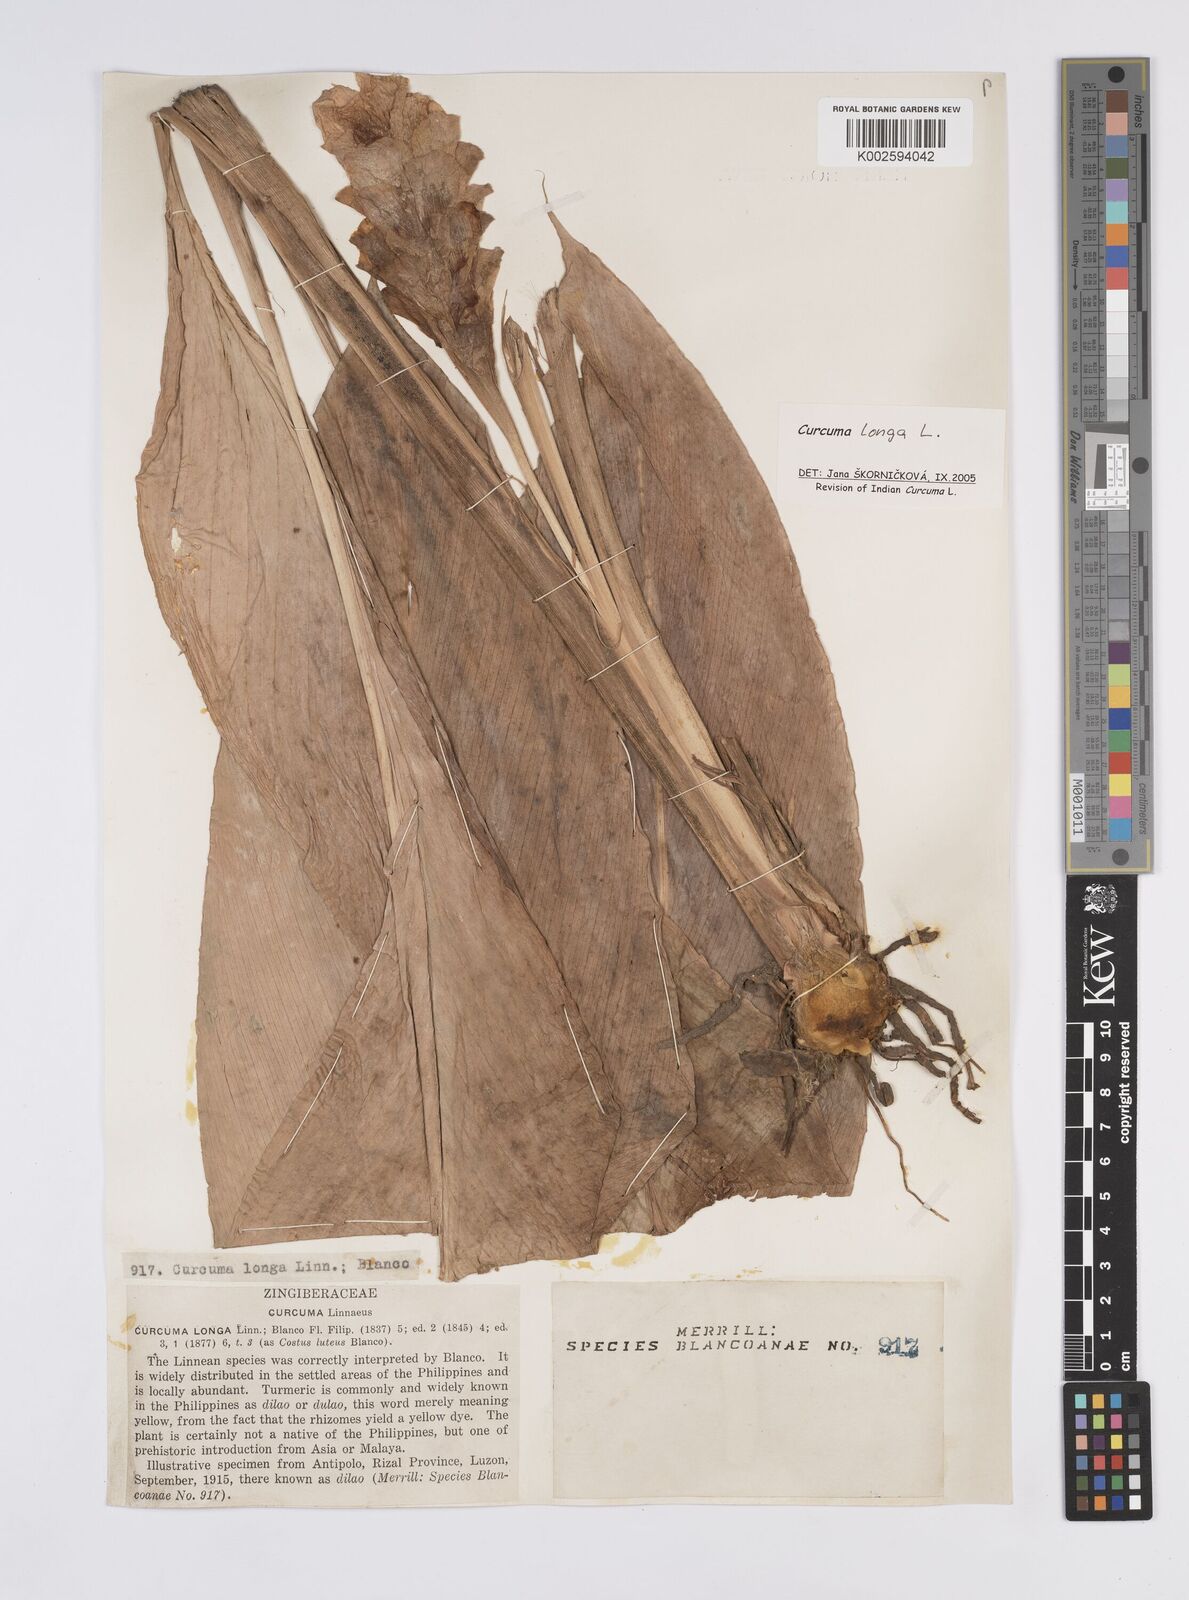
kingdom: Plantae
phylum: Tracheophyta
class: Liliopsida
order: Zingiberales
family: Zingiberaceae
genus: Curcuma
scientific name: Curcuma longa
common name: Turmeric
